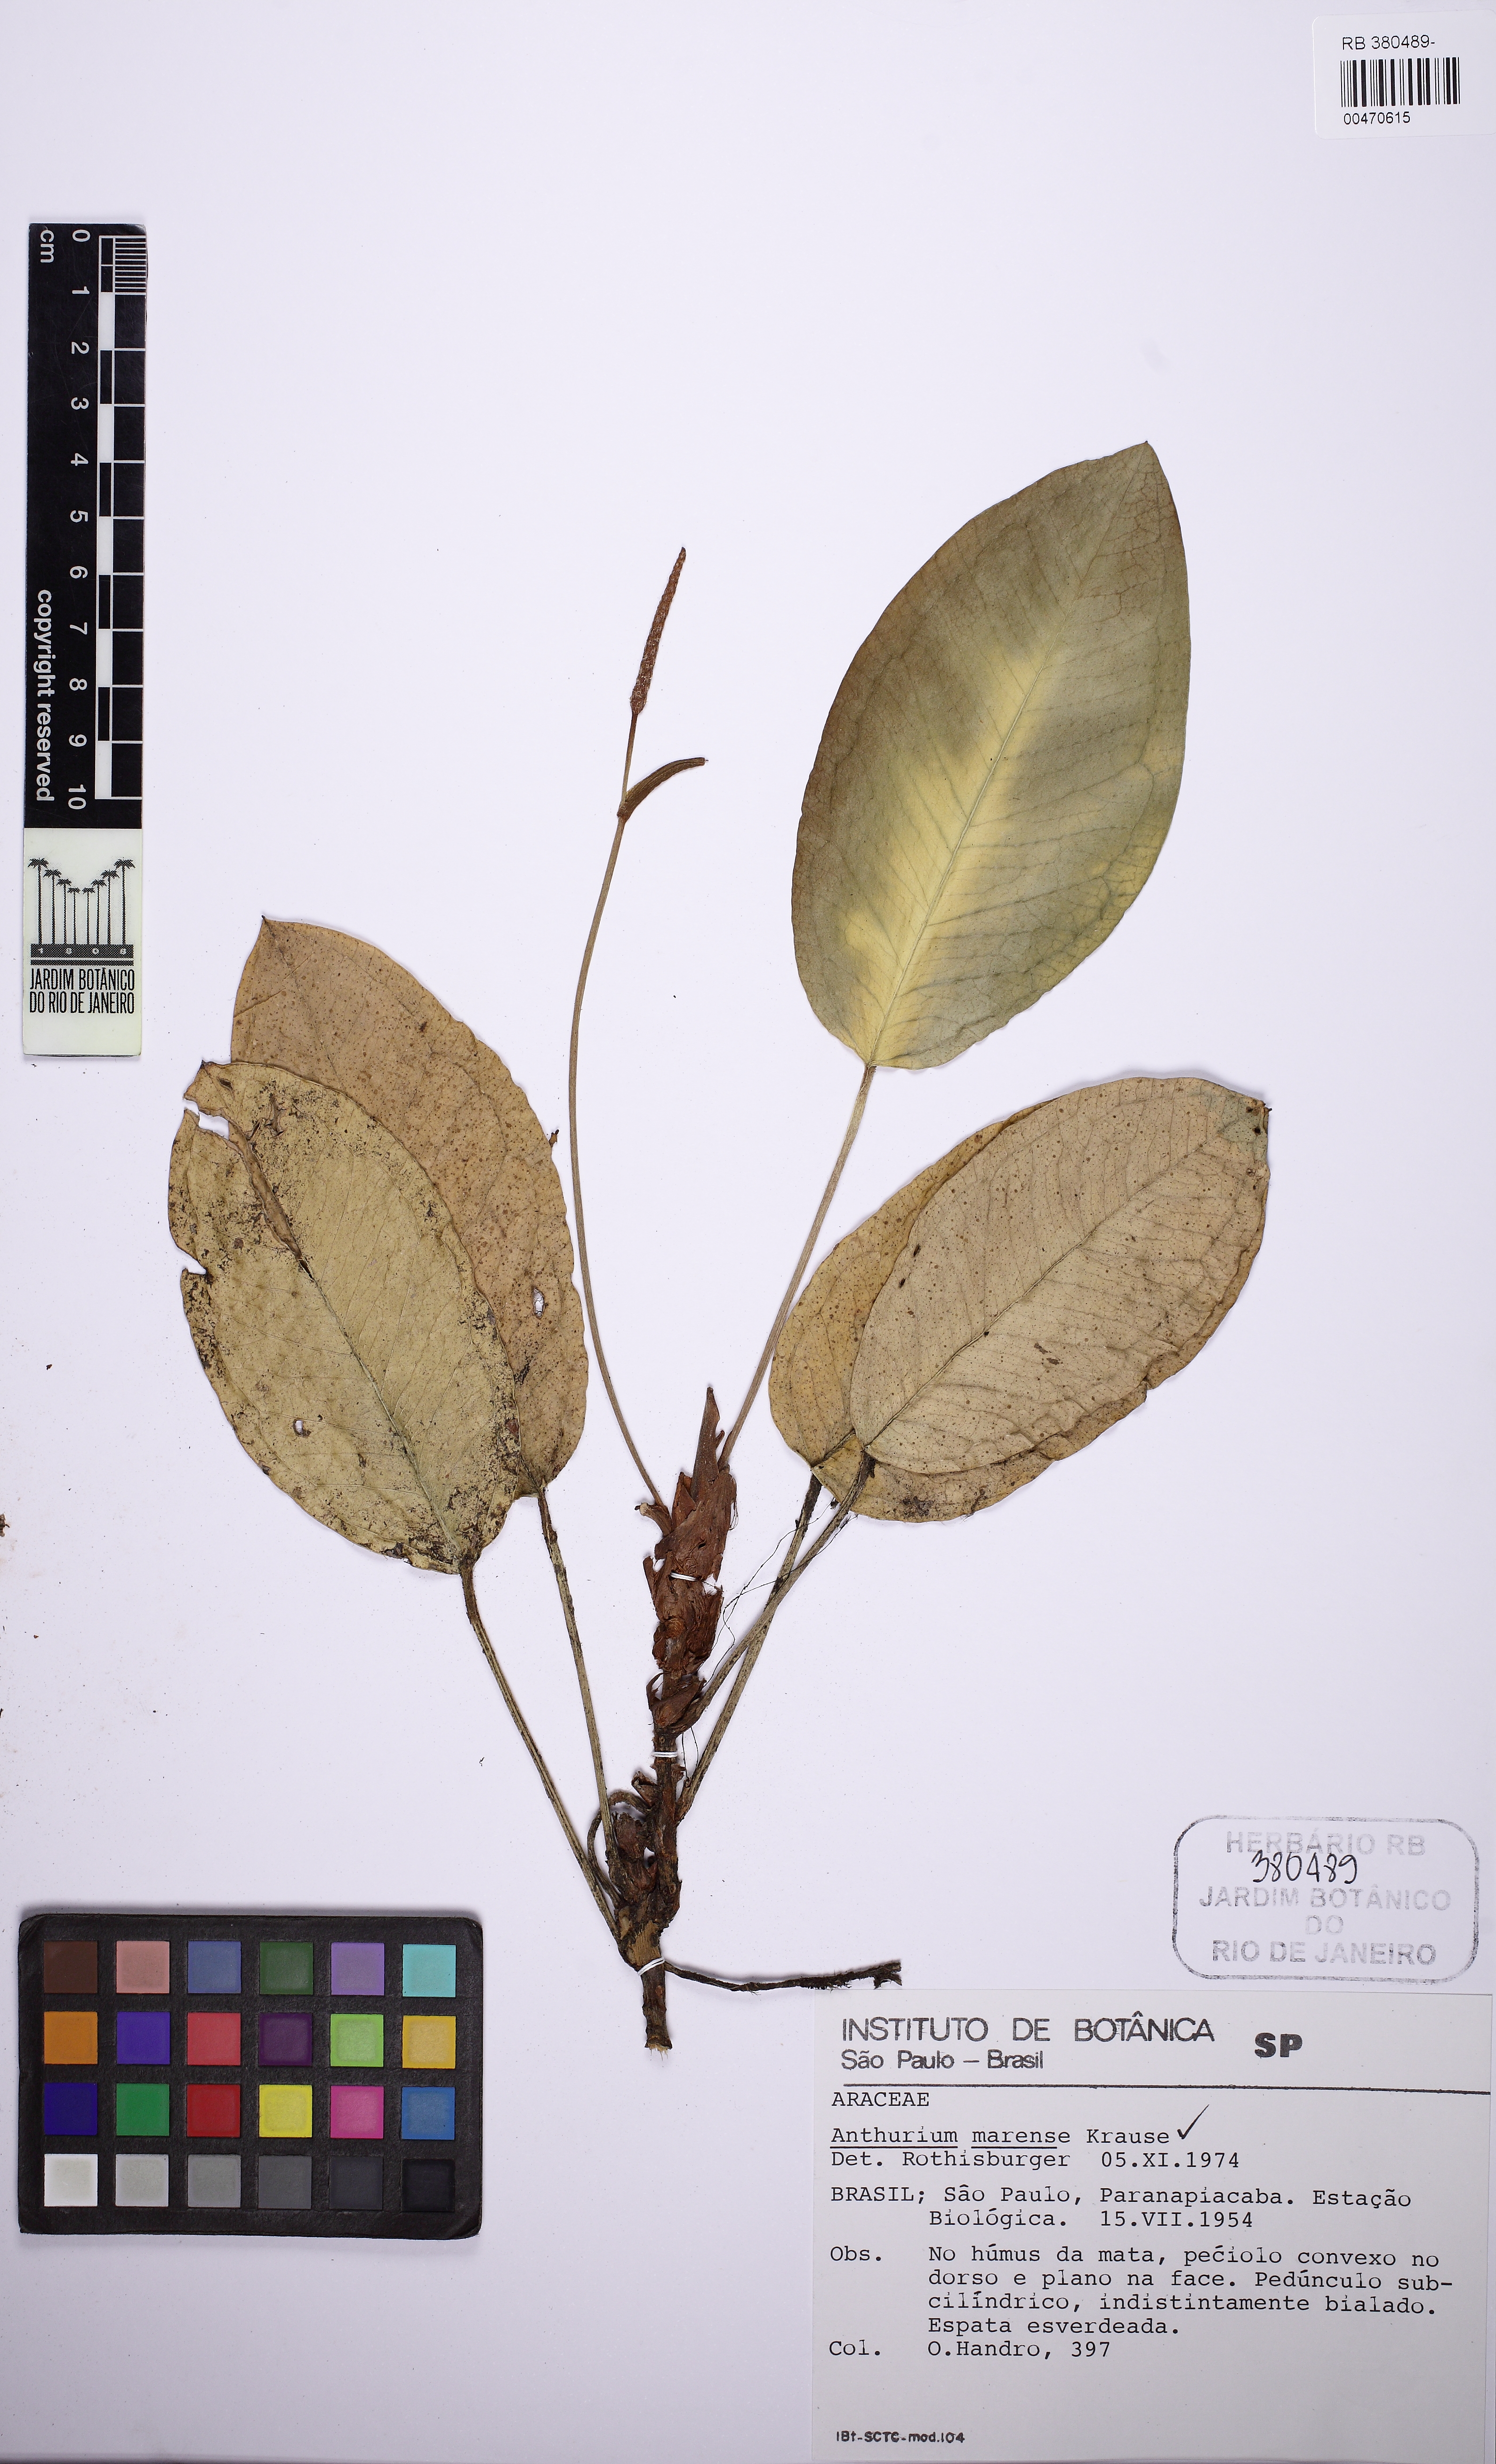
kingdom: Plantae
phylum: Tracheophyta
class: Liliopsida
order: Alismatales
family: Araceae
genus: Anthurium
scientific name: Anthurium marense
